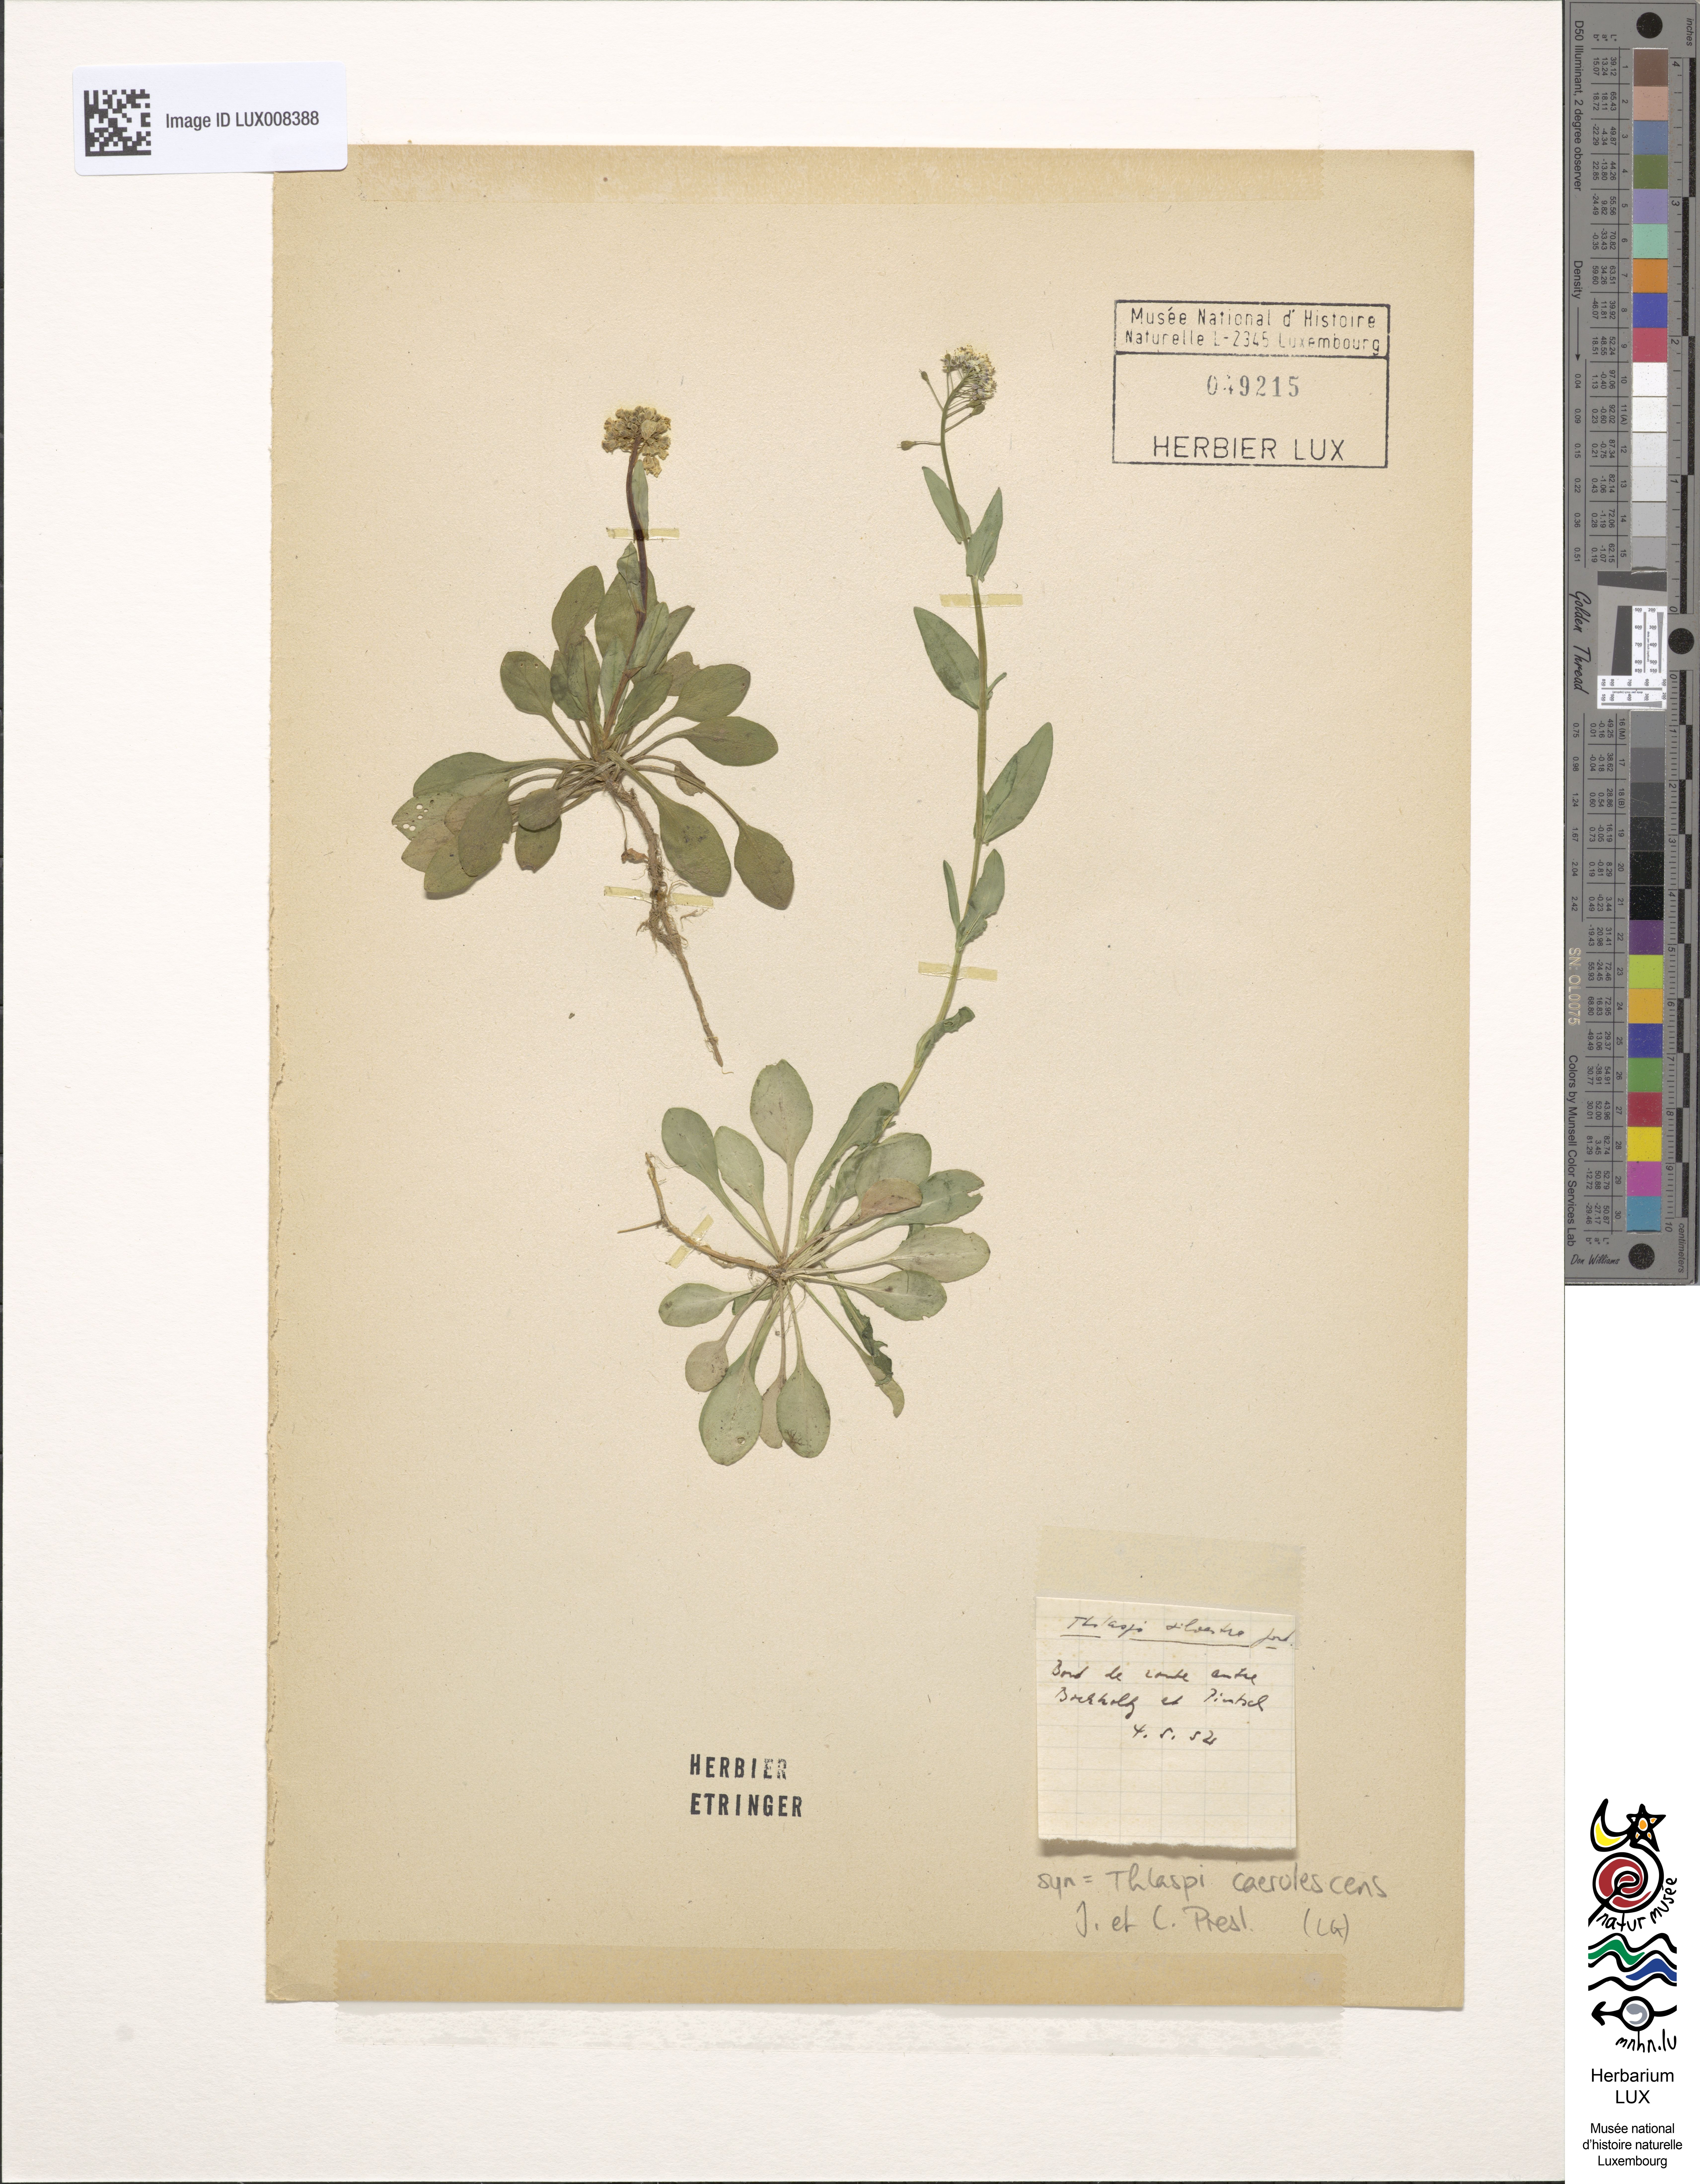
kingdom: Plantae
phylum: Tracheophyta
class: Magnoliopsida
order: Brassicales
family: Brassicaceae
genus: Noccaea
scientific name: Noccaea caerulescens
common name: Alpine pennycress
